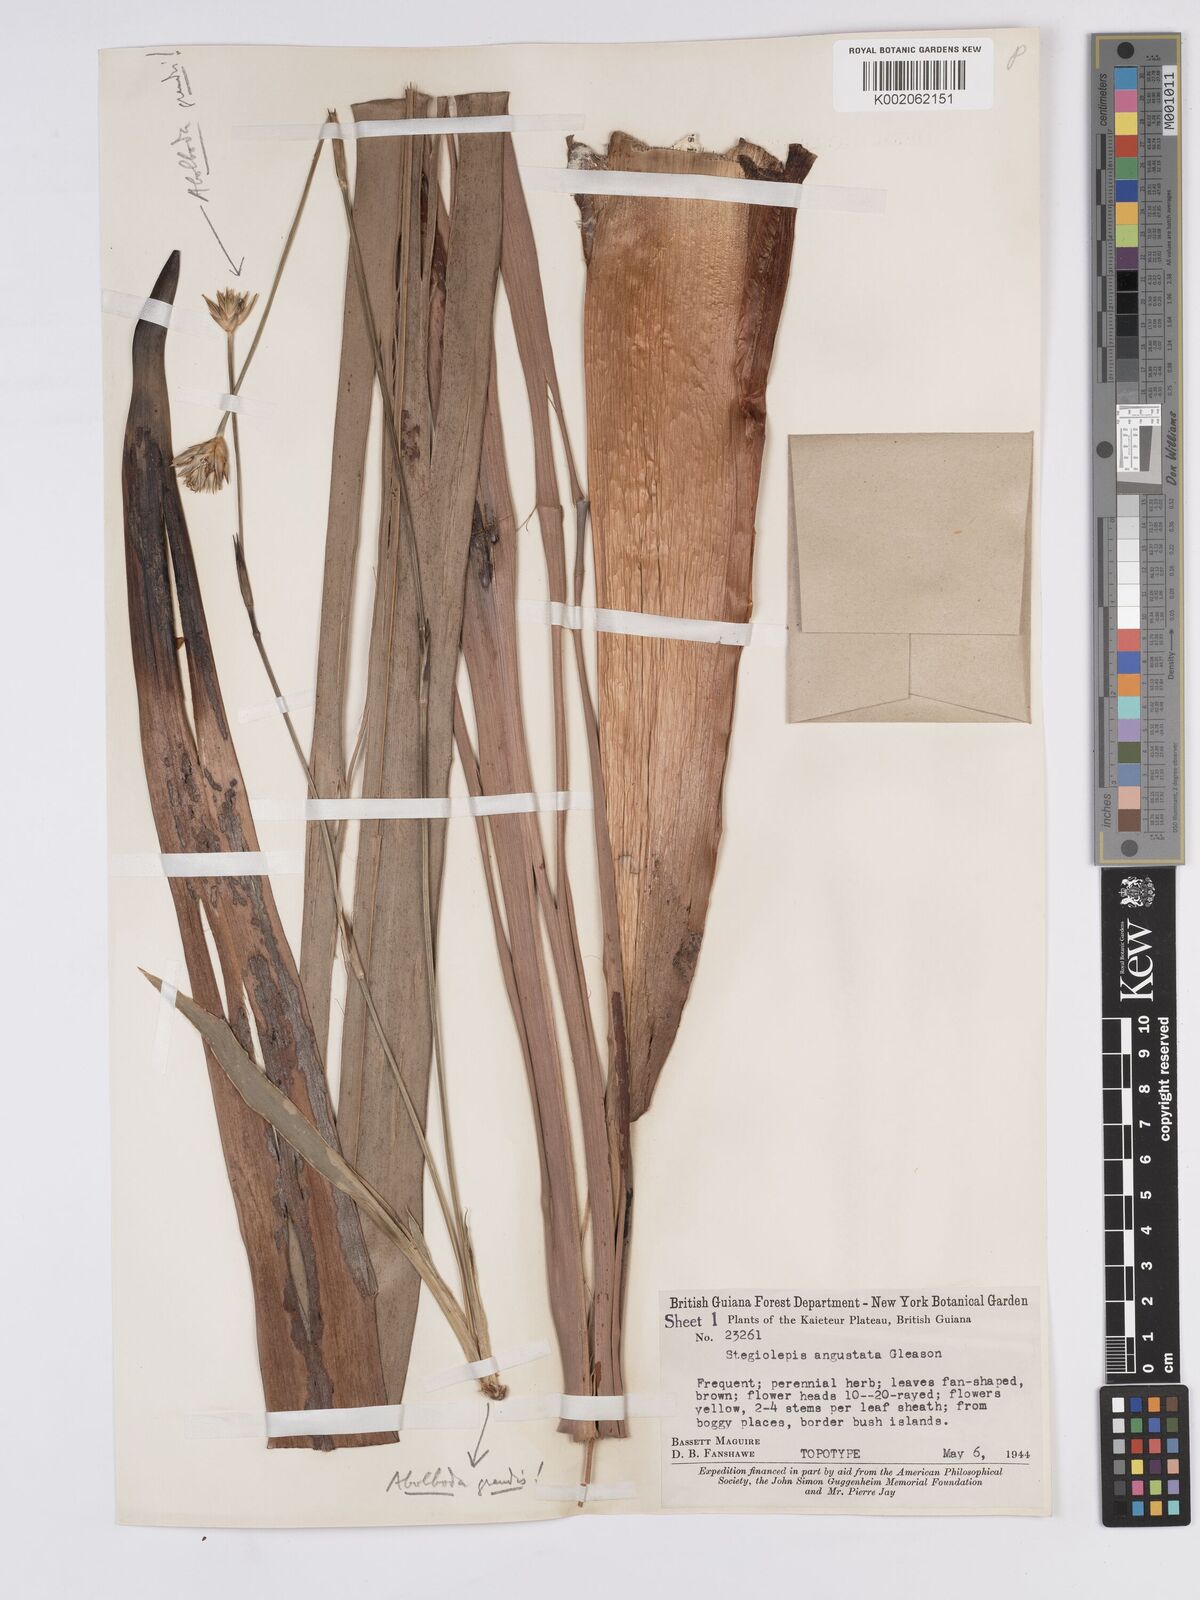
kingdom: Plantae
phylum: Tracheophyta
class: Liliopsida
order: Poales
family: Rapateaceae
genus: Stegolepis
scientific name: Stegolepis angustata
